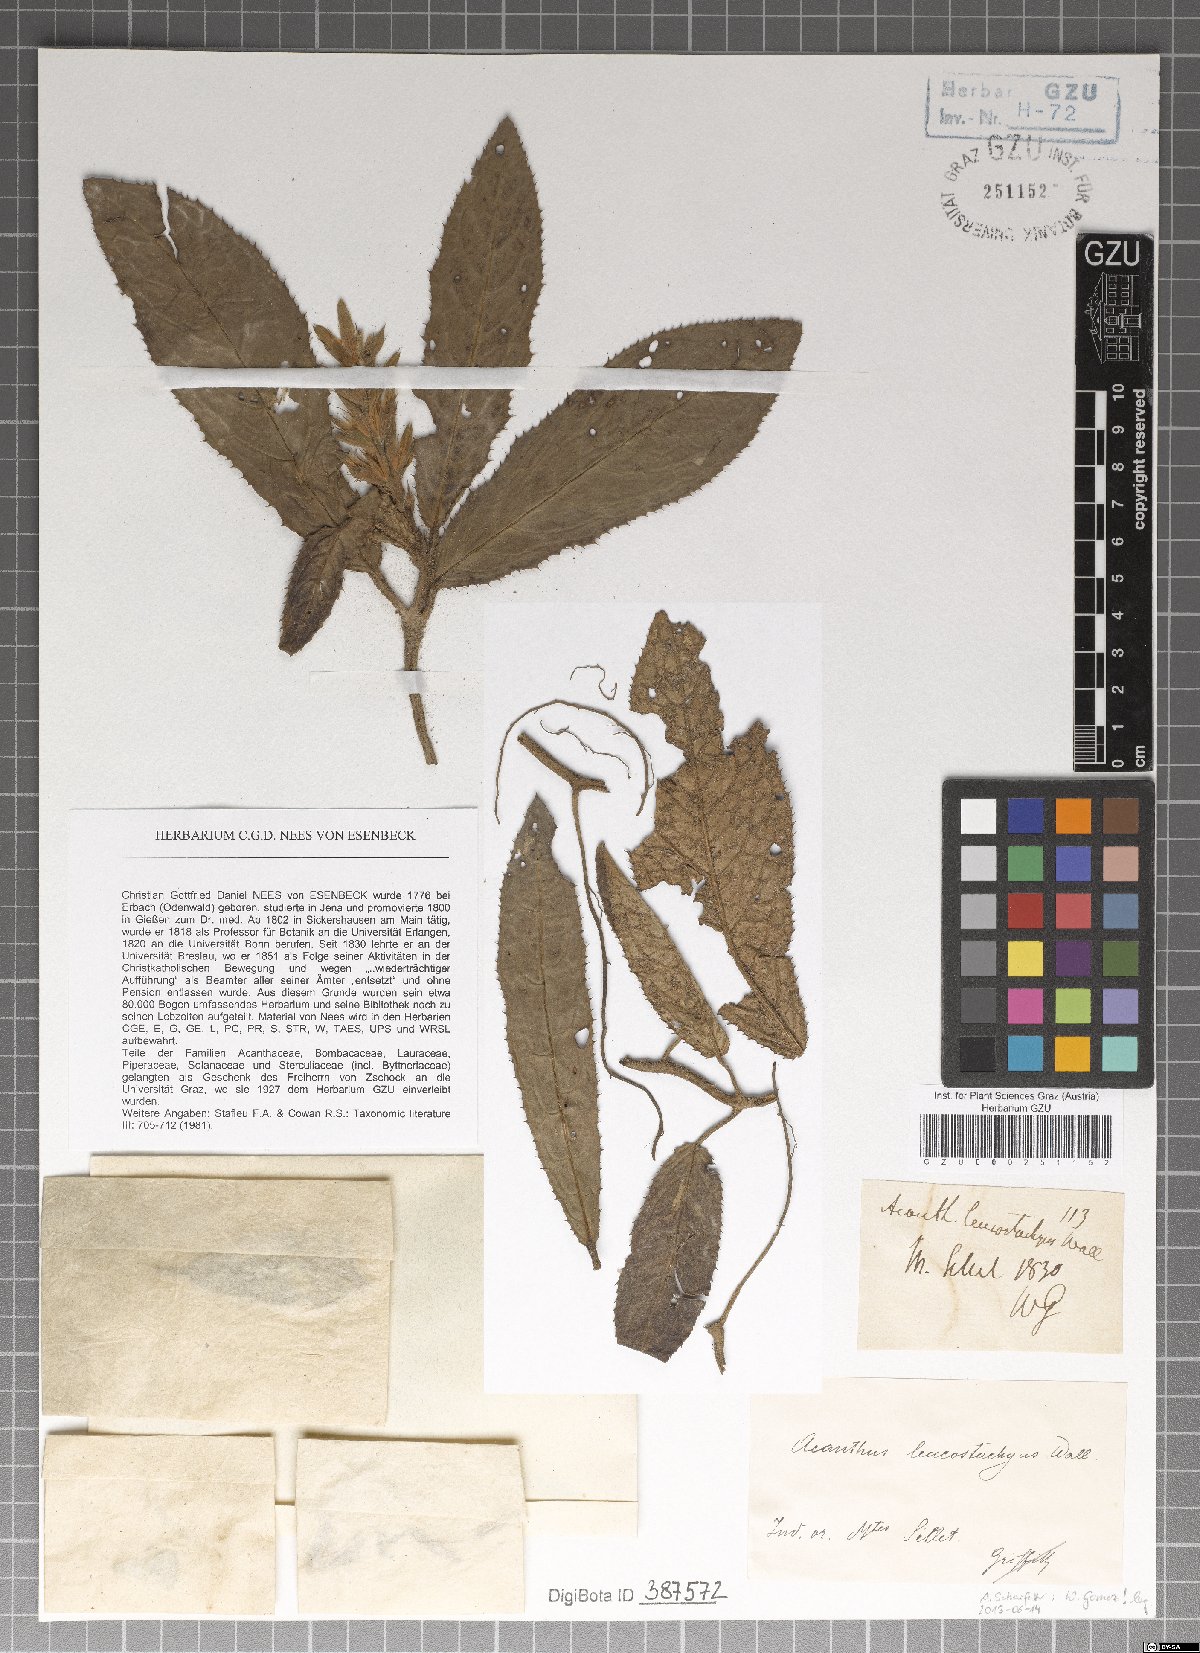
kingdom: Plantae
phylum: Tracheophyta
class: Magnoliopsida
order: Lamiales
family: Acanthaceae
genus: Acanthus
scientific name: Acanthus leucostachyus
